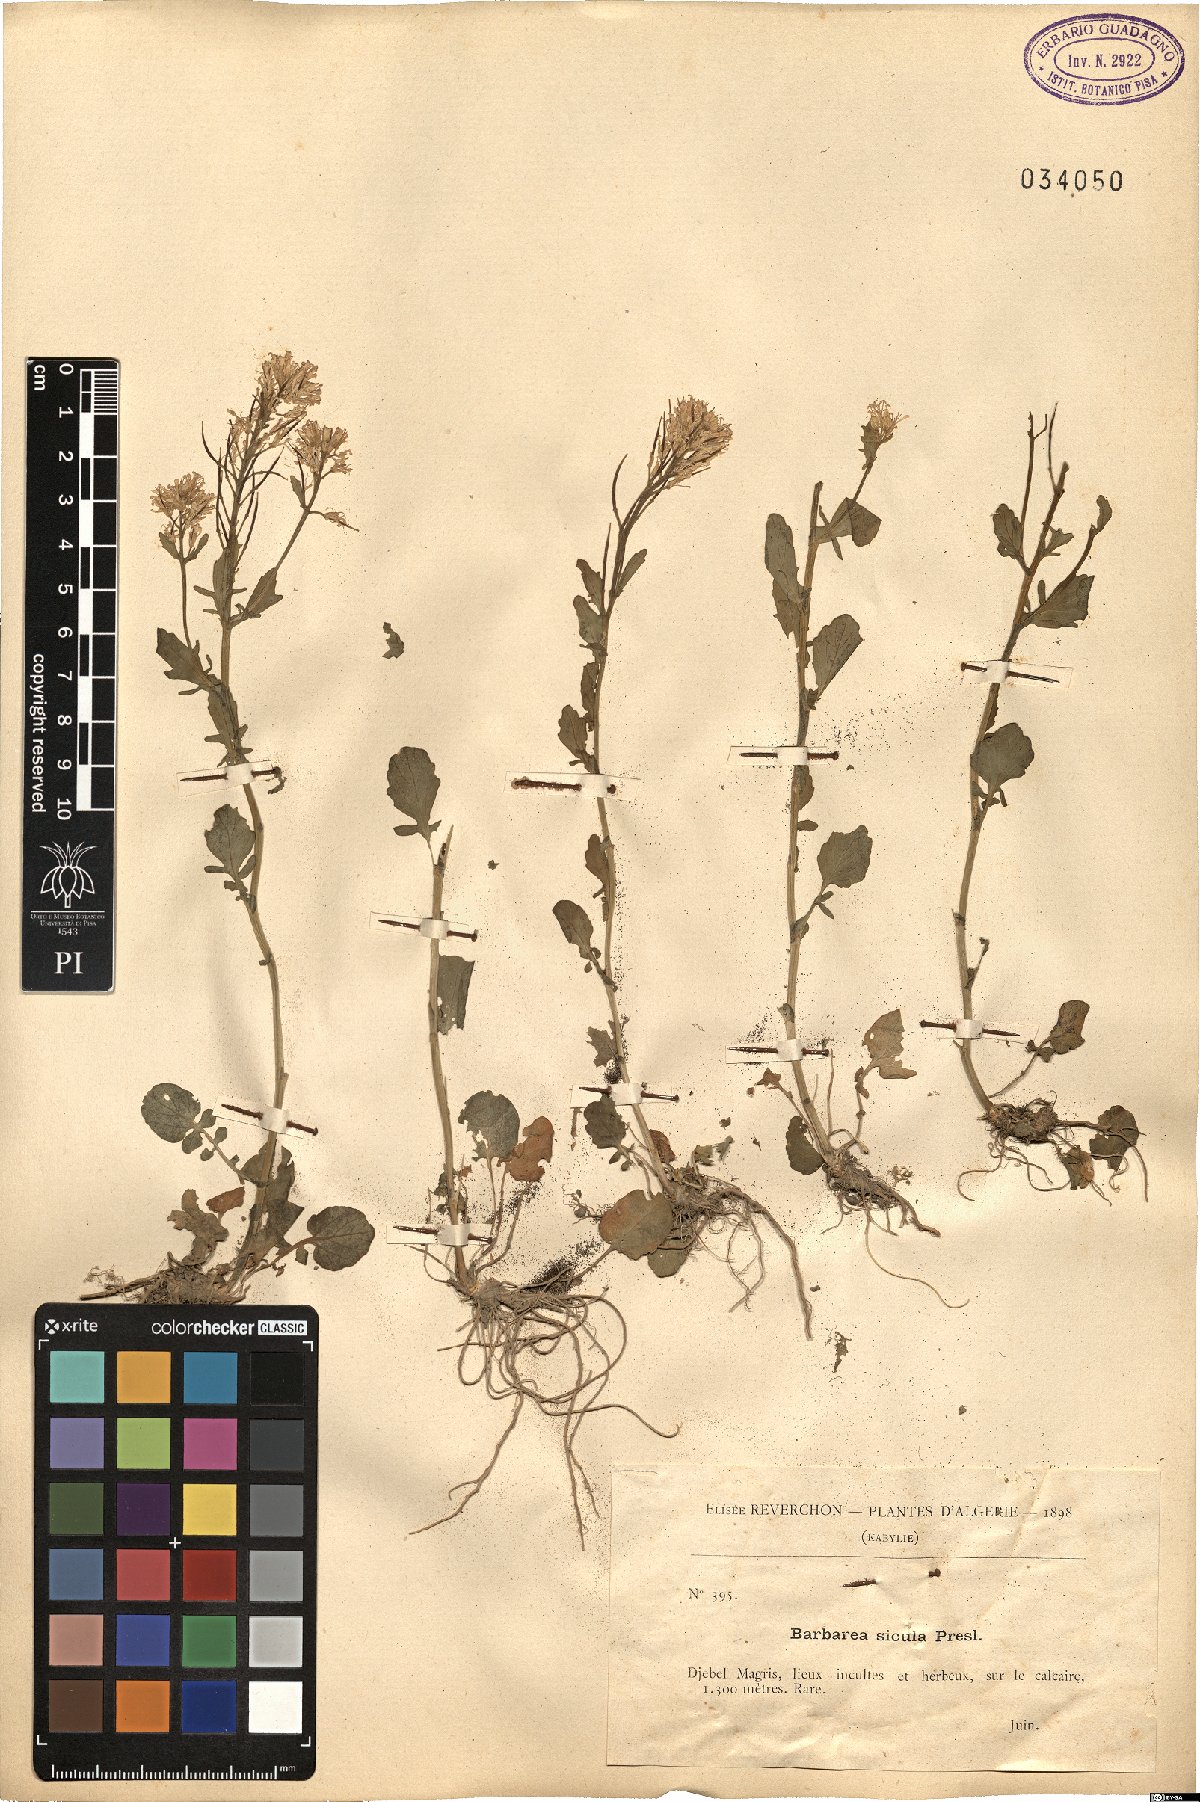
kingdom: Plantae
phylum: Tracheophyta
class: Magnoliopsida
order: Brassicales
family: Brassicaceae
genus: Barbarea
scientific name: Barbarea sicula
